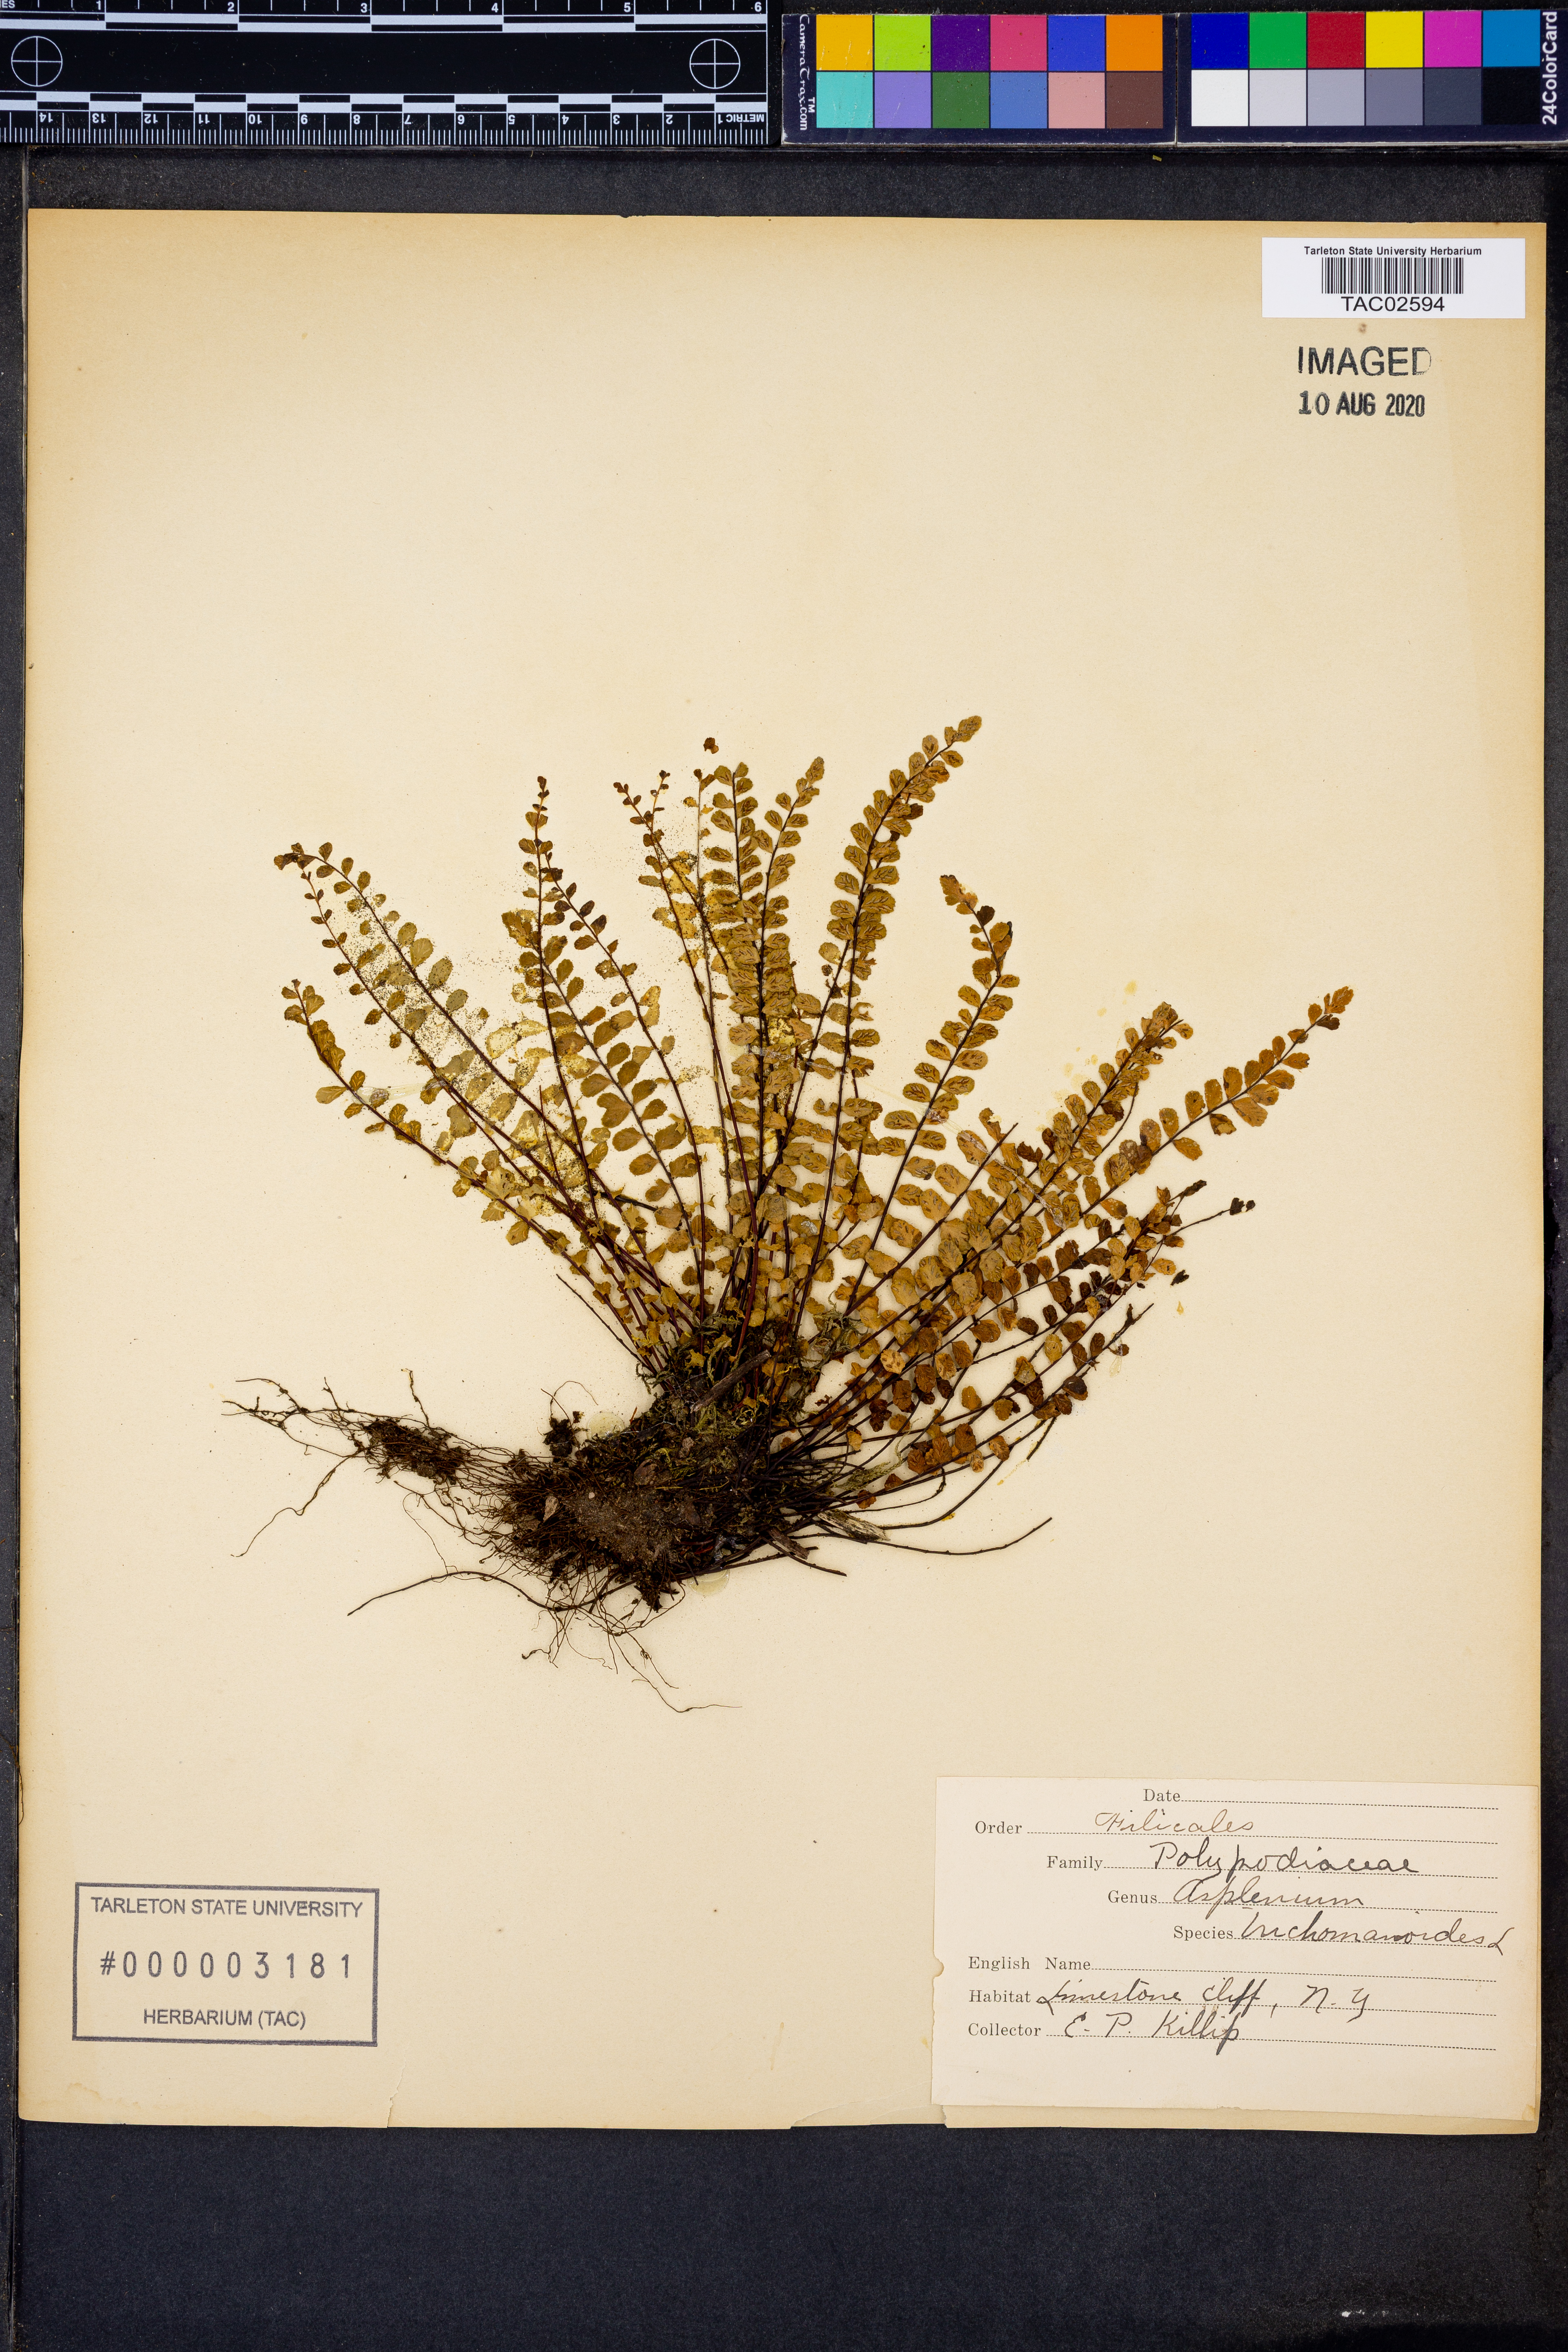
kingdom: Plantae
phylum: Tracheophyta
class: Polypodiopsida
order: Polypodiales
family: Aspleniaceae
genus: Asplenium
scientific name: Asplenium trichomanes
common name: Maidenhair spleenwort
